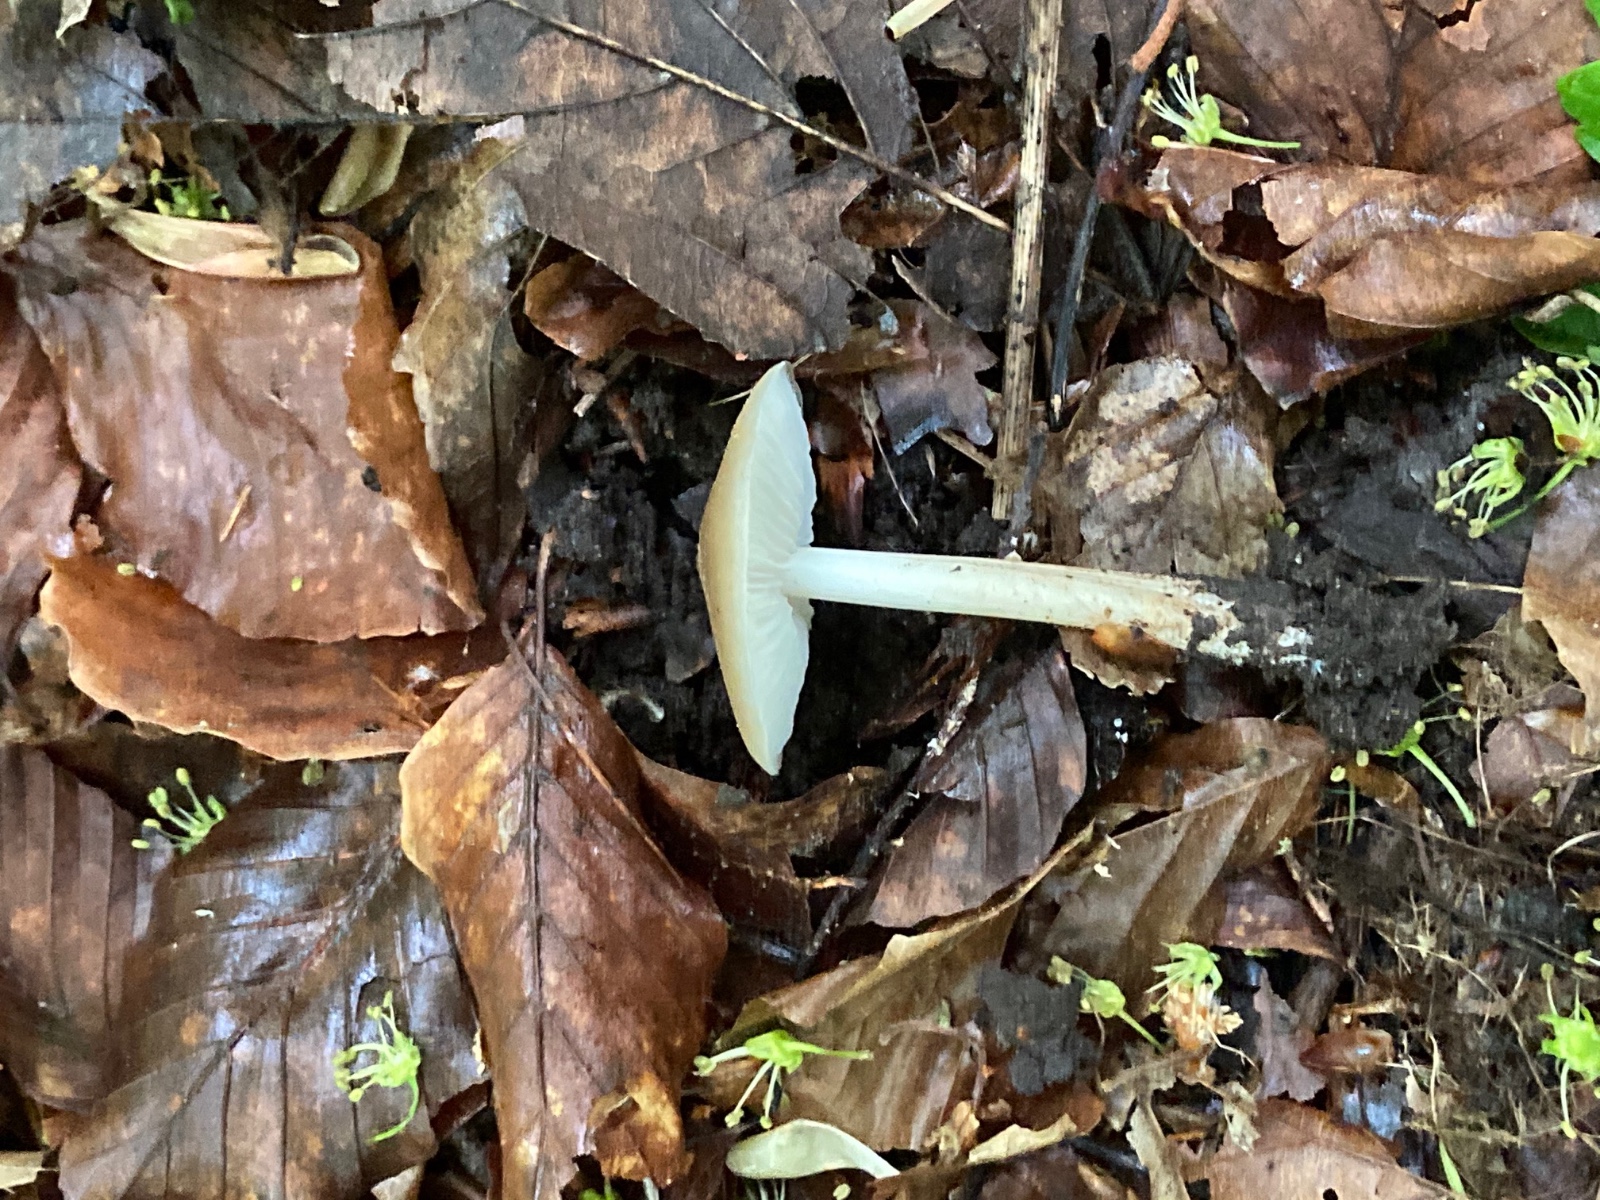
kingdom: Fungi
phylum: Basidiomycota
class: Agaricomycetes
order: Agaricales
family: Porotheleaceae
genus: Hydropodia
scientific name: Hydropodia subalpina
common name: vår-fnugfod
